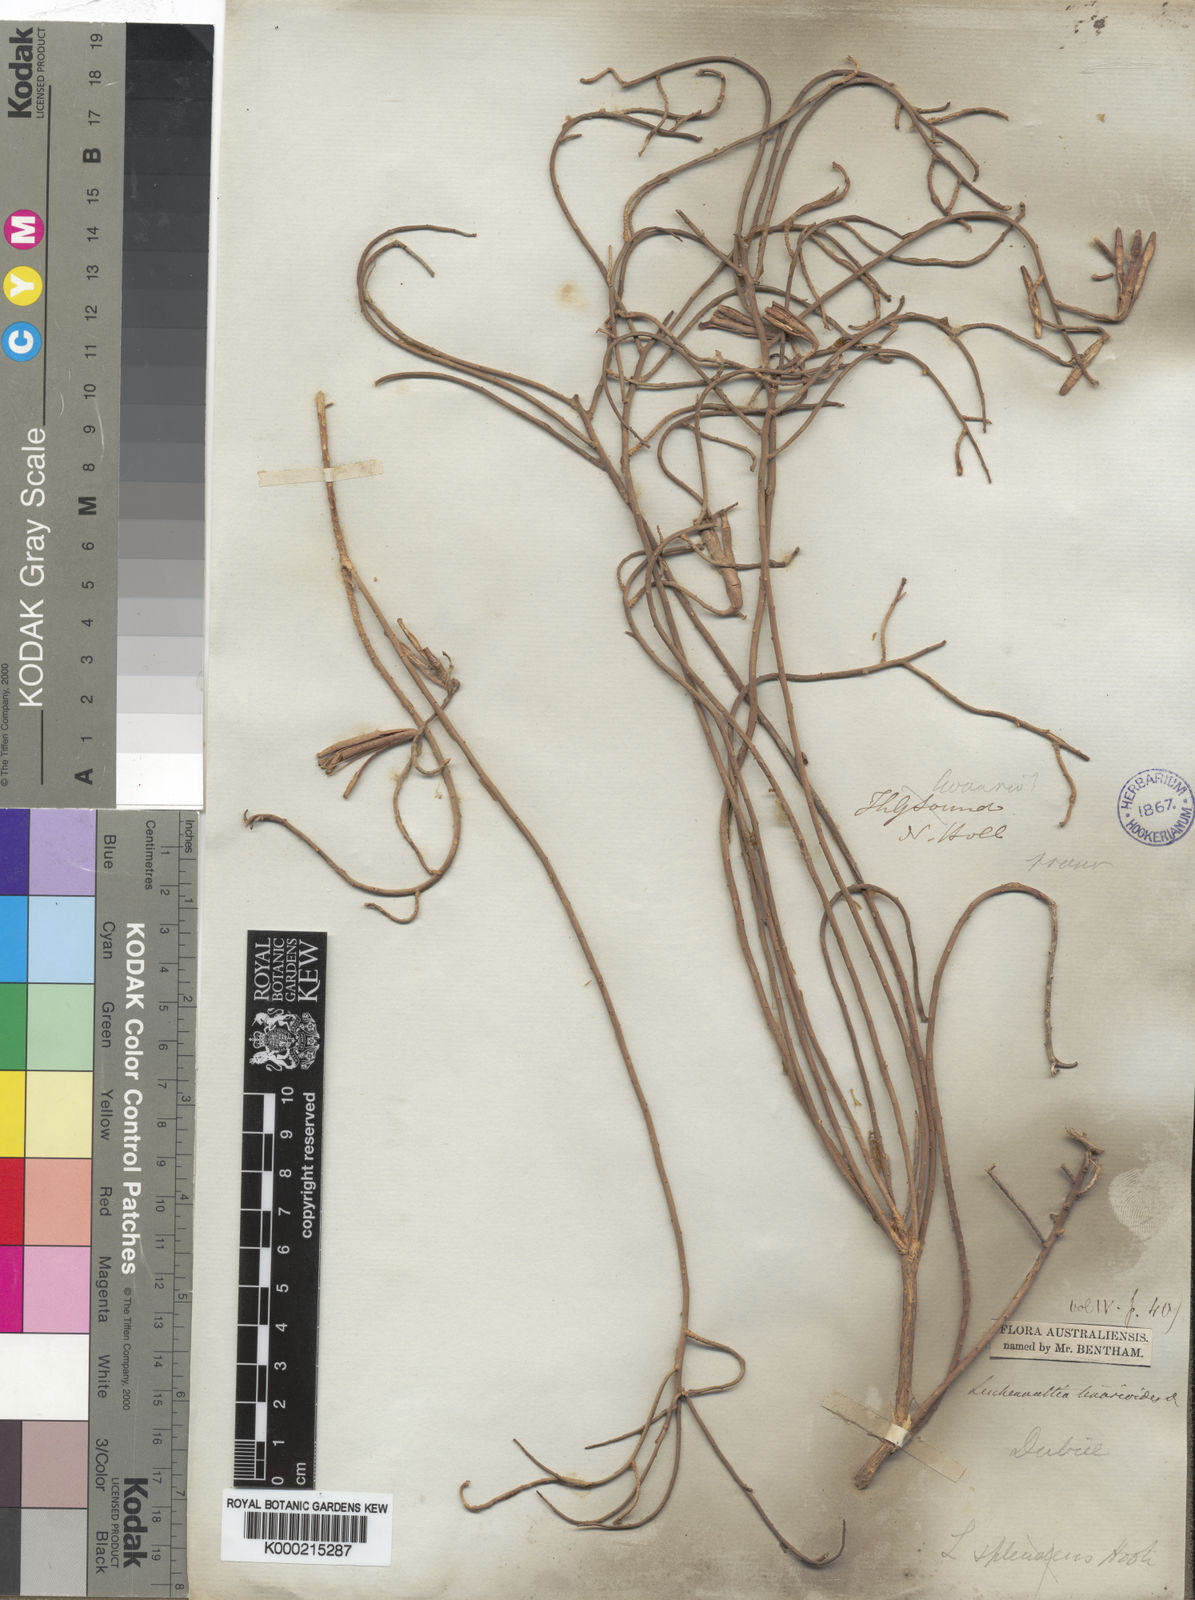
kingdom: Plantae
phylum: Tracheophyta
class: Magnoliopsida
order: Asterales
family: Goodeniaceae
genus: Leschenaultia
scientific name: Leschenaultia
